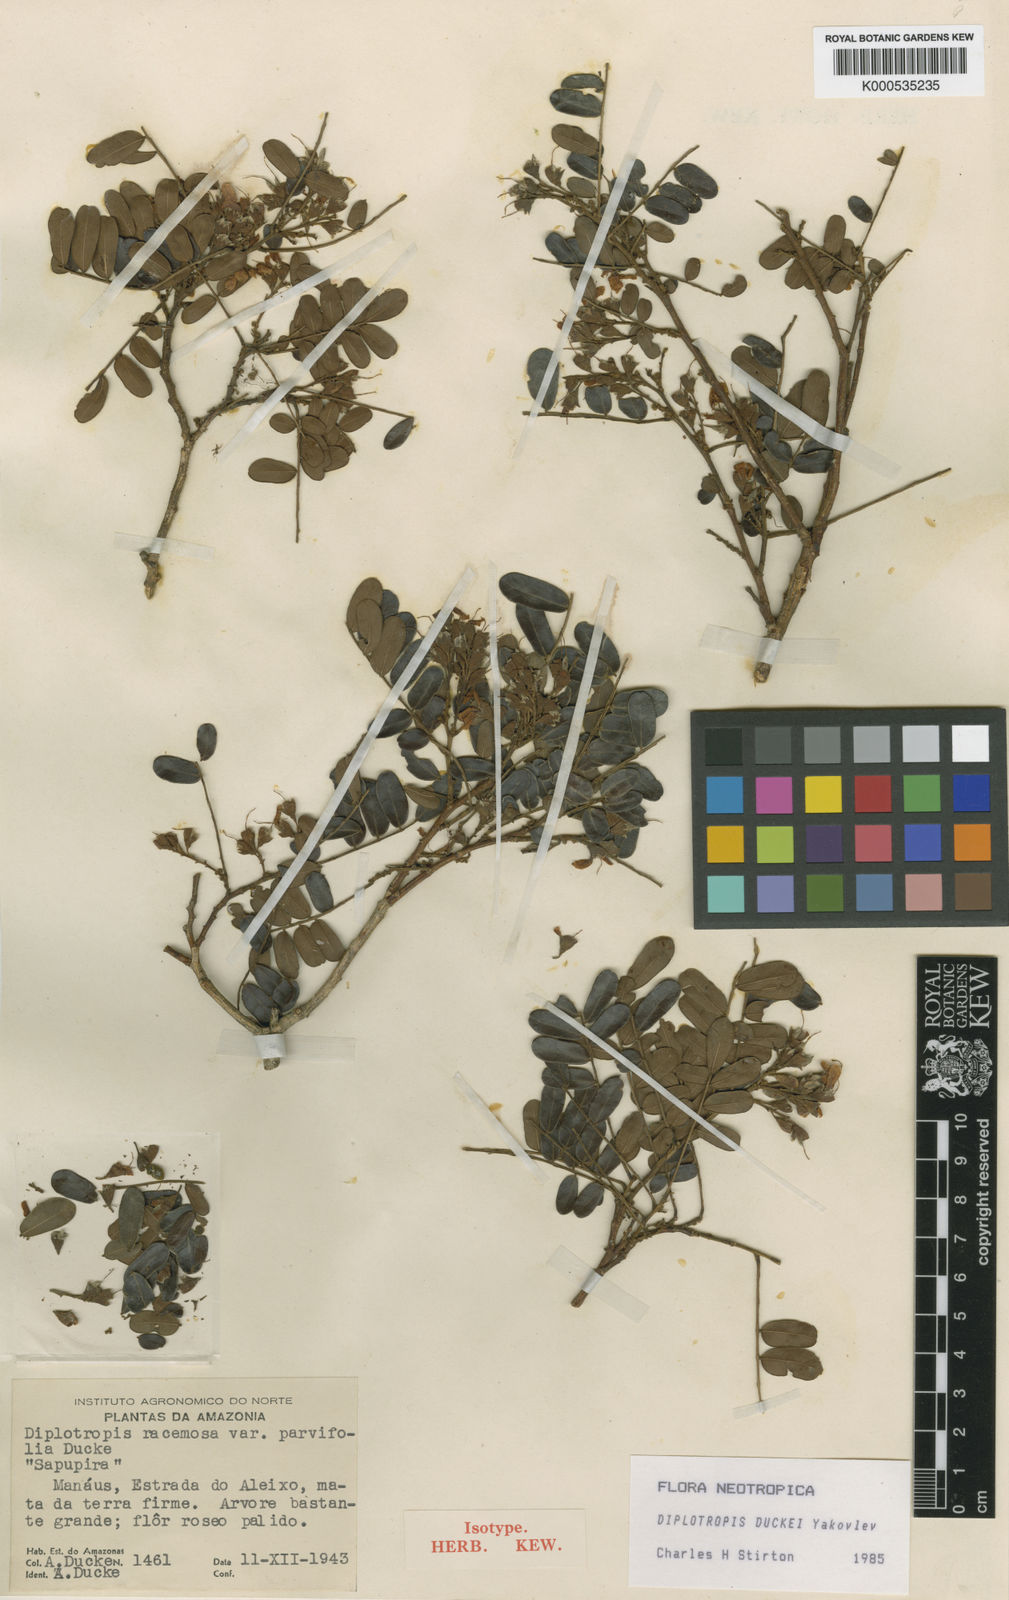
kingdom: Plantae
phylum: Tracheophyta
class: Magnoliopsida
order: Fabales
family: Fabaceae
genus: Staminodianthus
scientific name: Staminodianthus duckei
